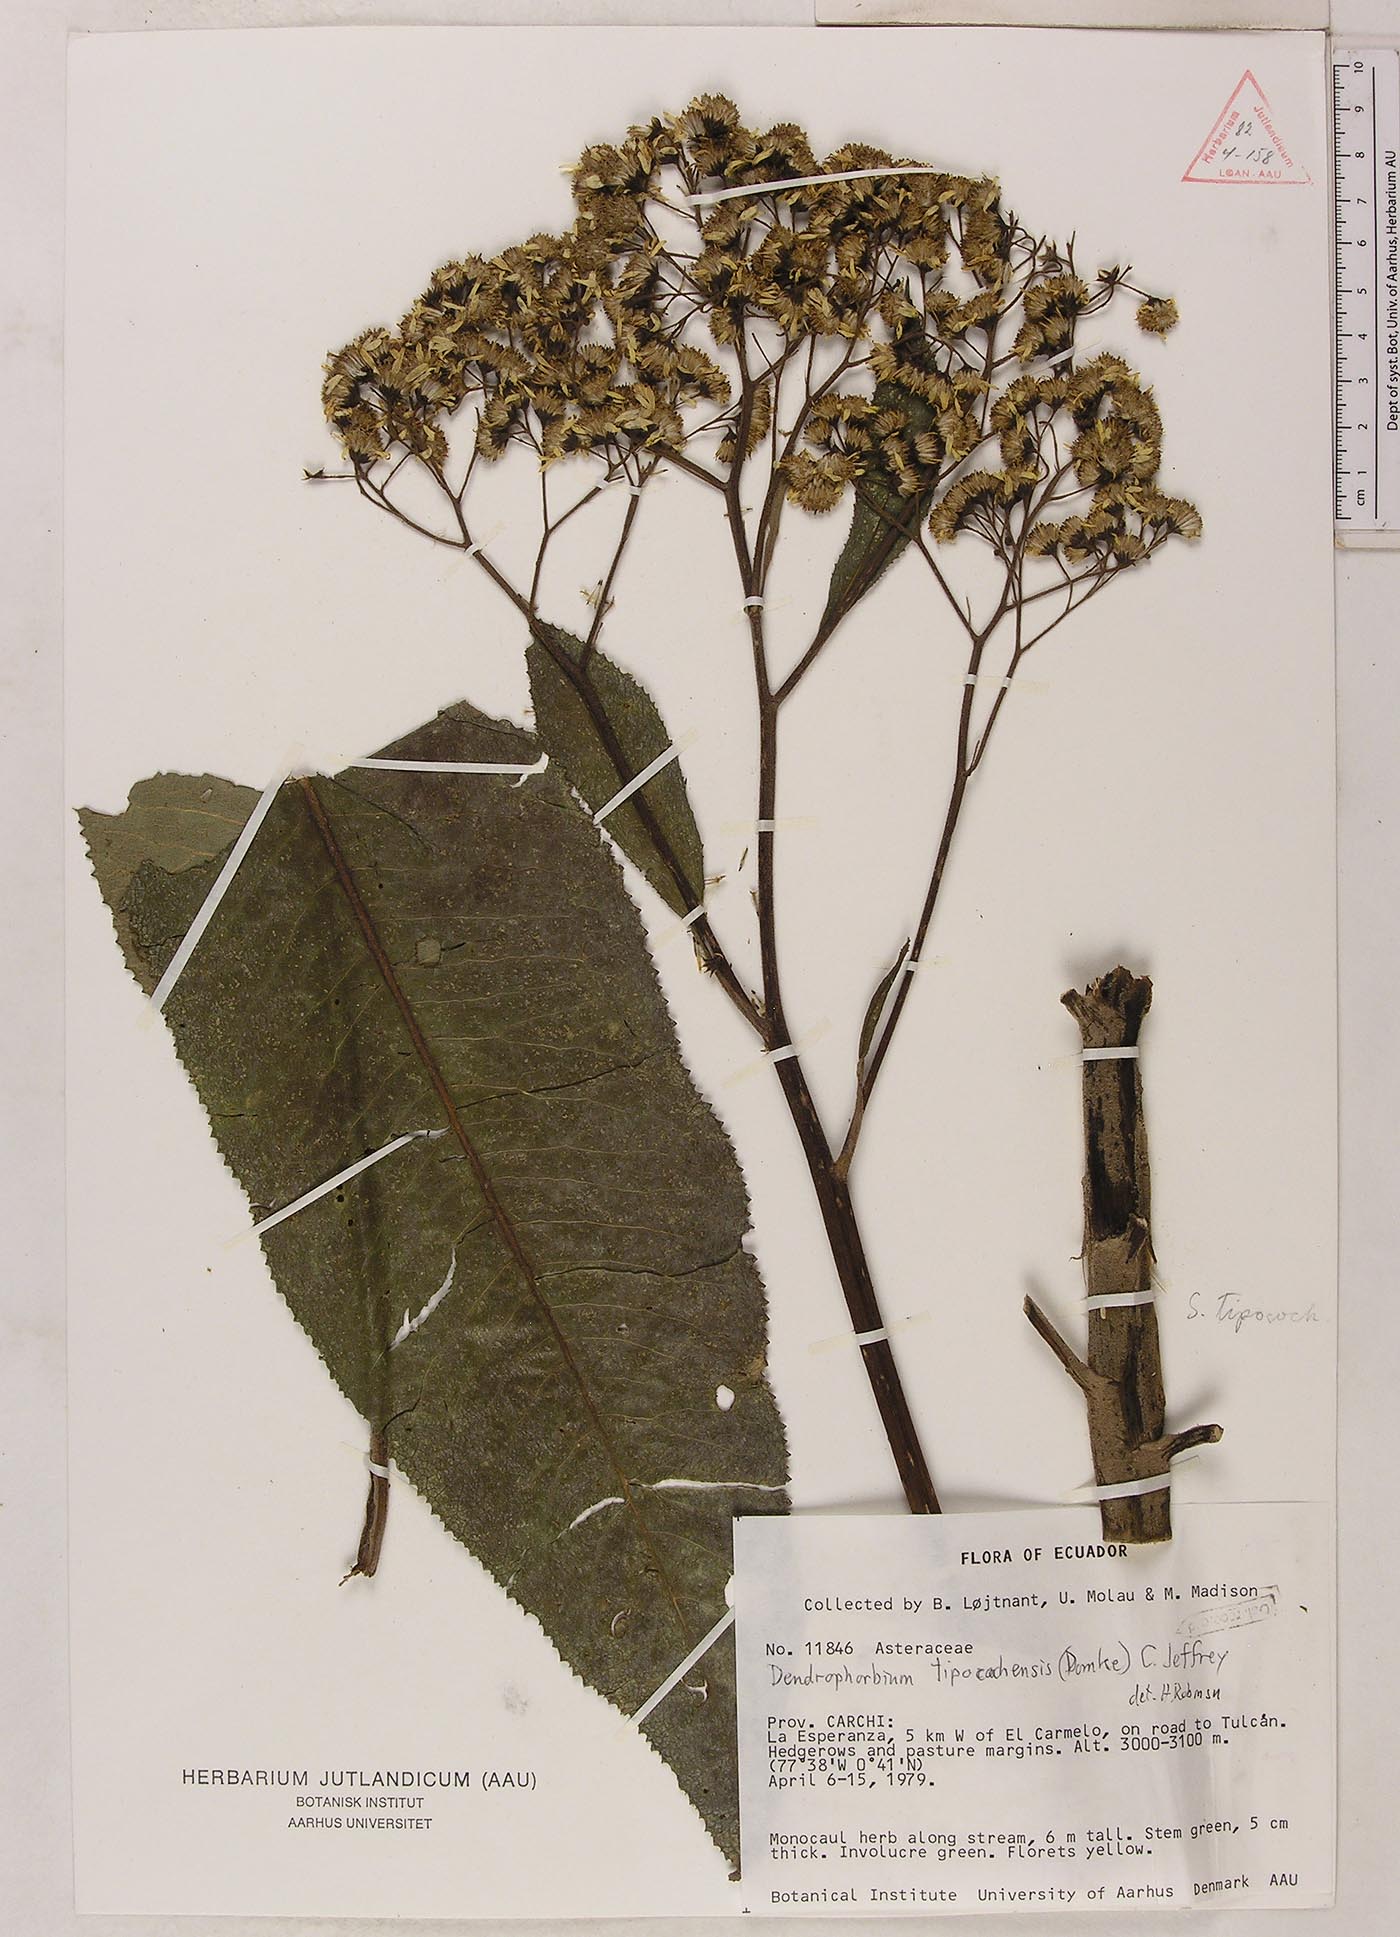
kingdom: Plantae
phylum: Tracheophyta
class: Magnoliopsida
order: Asterales
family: Asteraceae
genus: Dendrophorbium
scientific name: Dendrophorbium tipocochense
